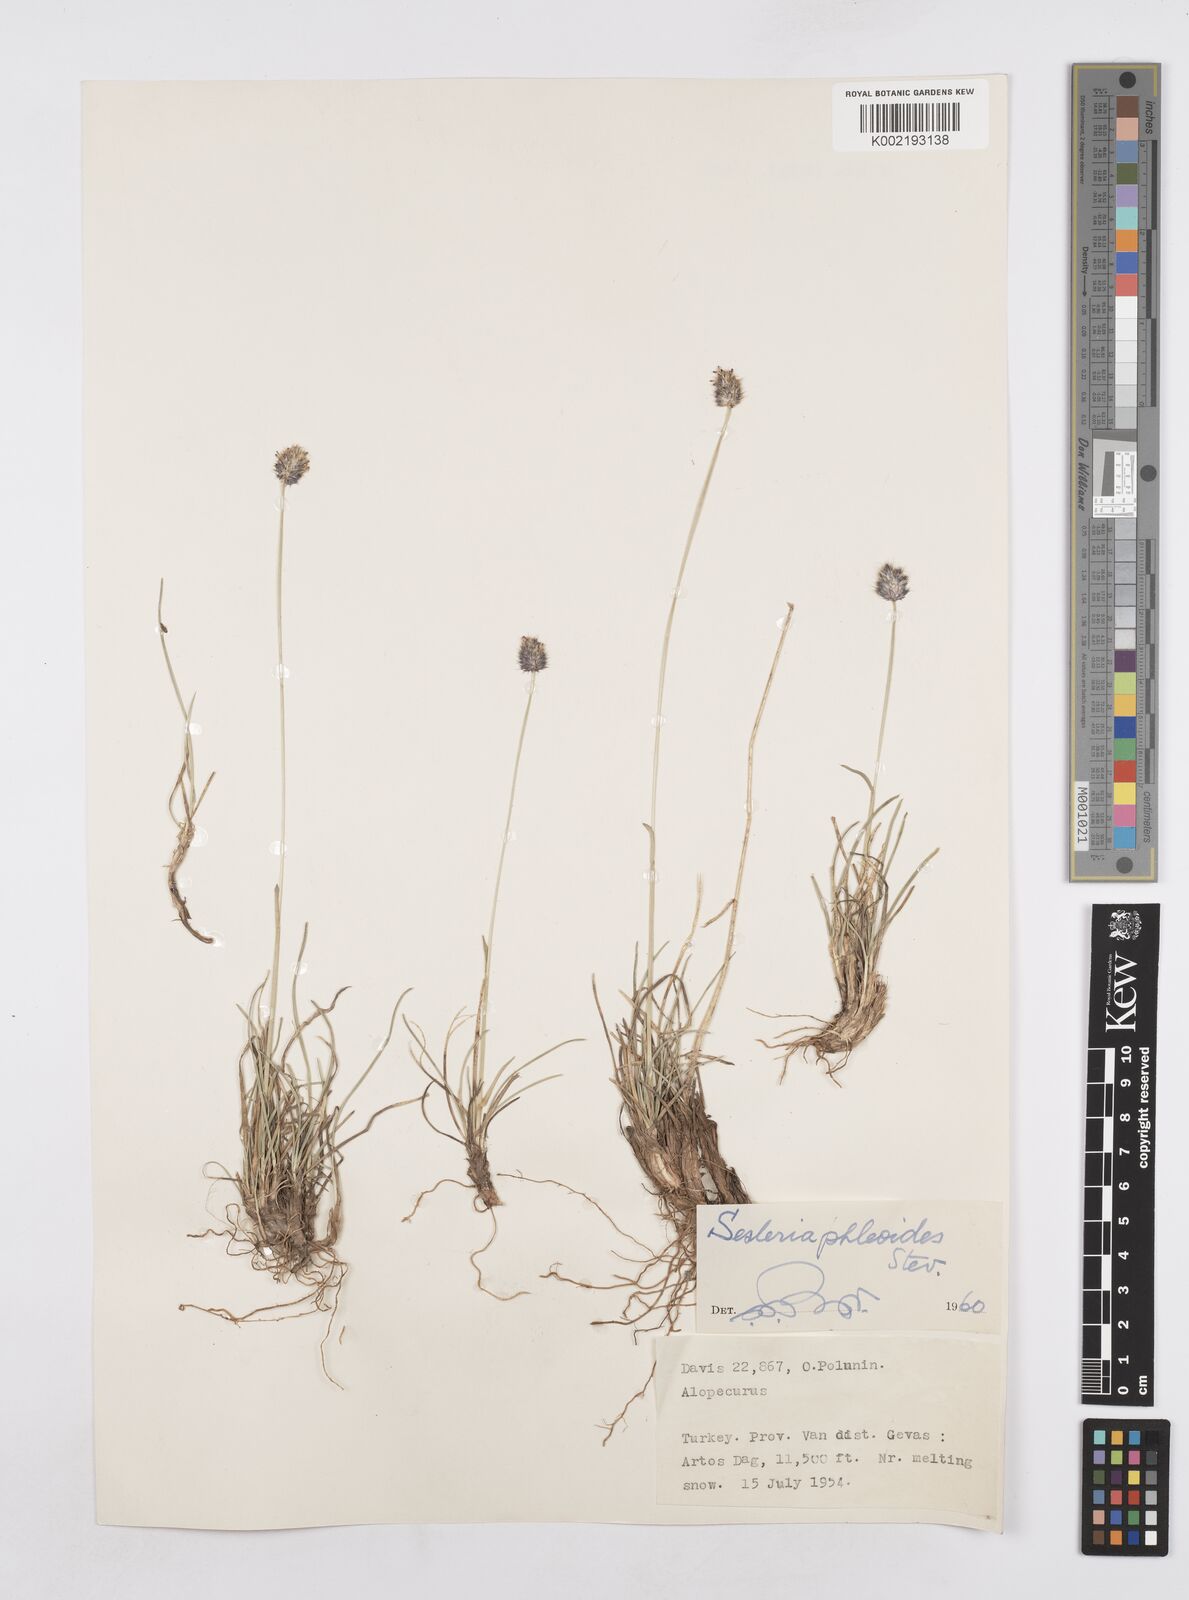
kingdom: Plantae
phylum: Tracheophyta
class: Liliopsida
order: Poales
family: Poaceae
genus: Sesleria
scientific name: Sesleria phleoides
